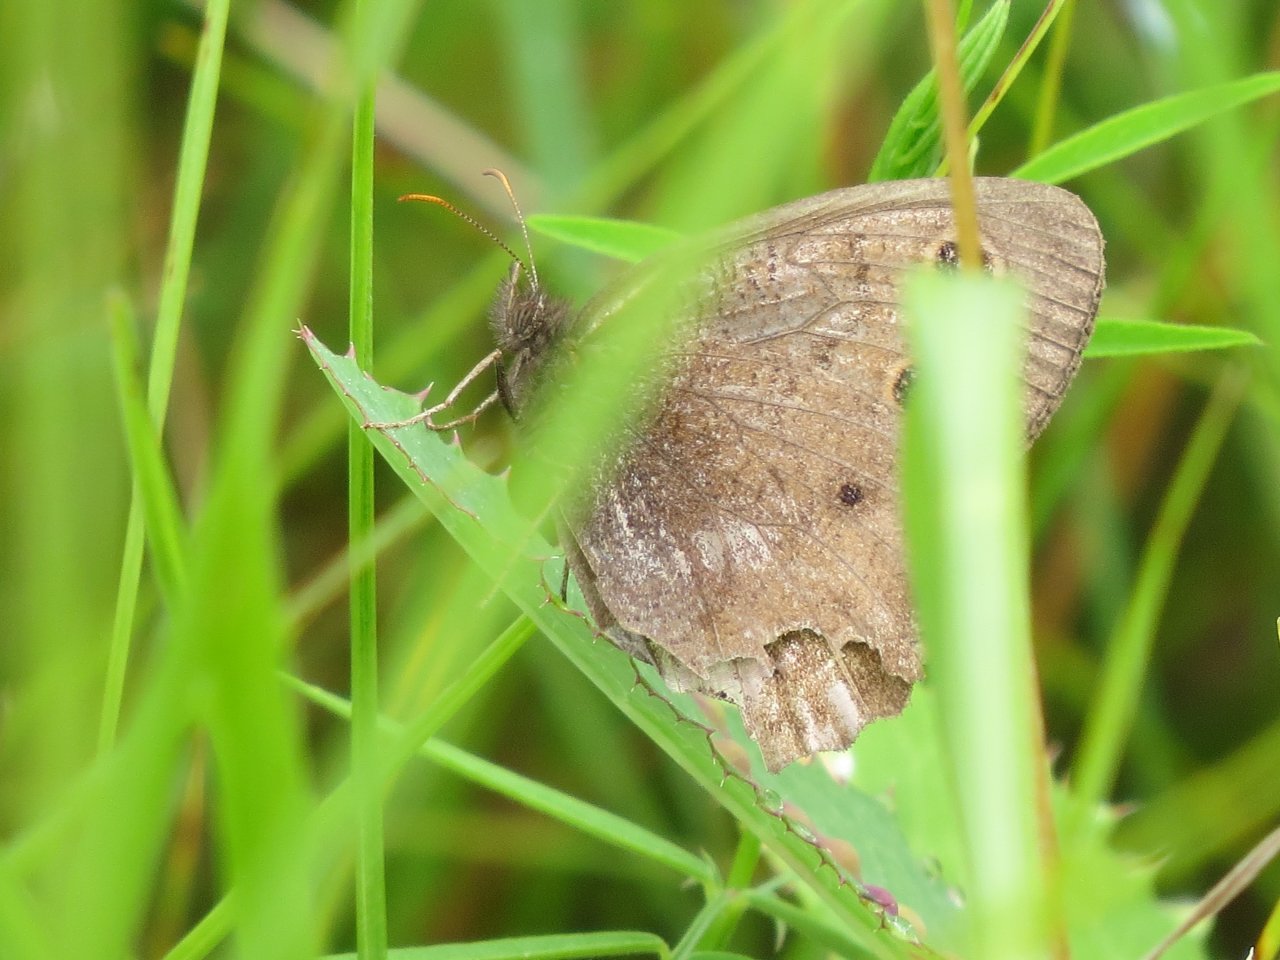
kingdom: Animalia
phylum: Arthropoda
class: Insecta
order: Lepidoptera
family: Nymphalidae
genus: Cercyonis
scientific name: Cercyonis pegala
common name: Common Wood-Nymph
